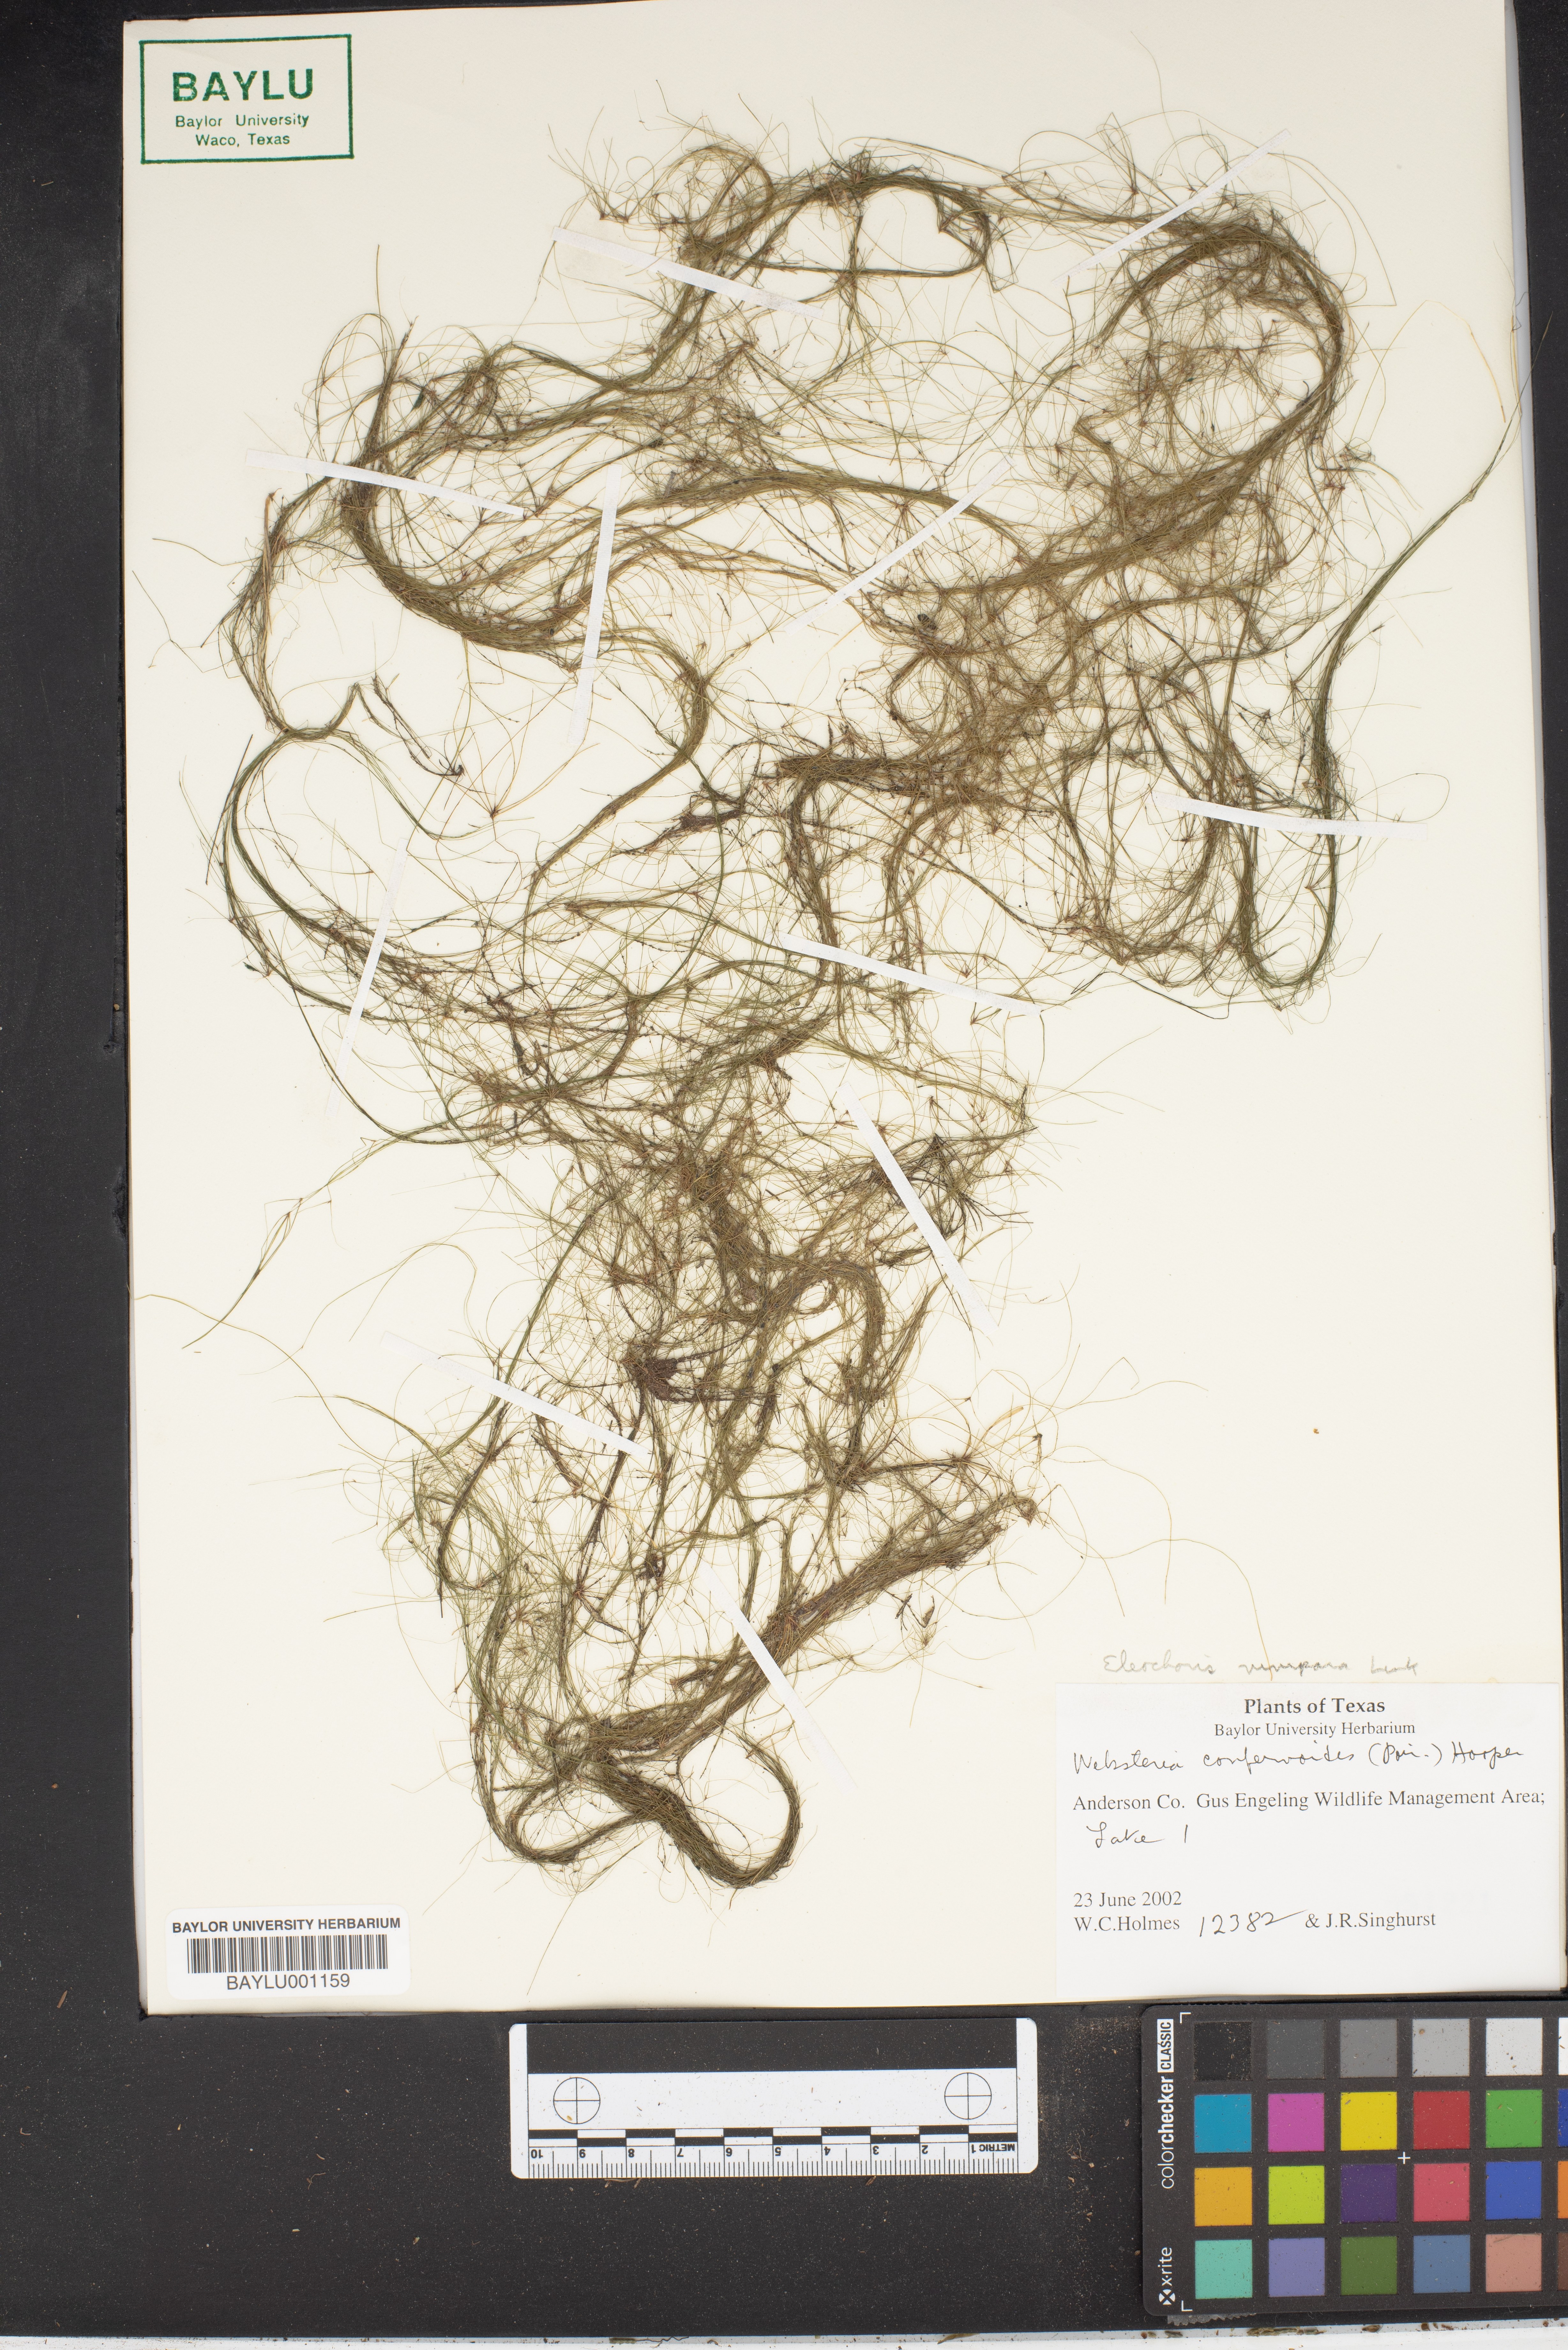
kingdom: Plantae
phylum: Tracheophyta
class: Liliopsida
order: Poales
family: Cyperaceae
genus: Eleocharis
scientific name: Eleocharis confervoides
